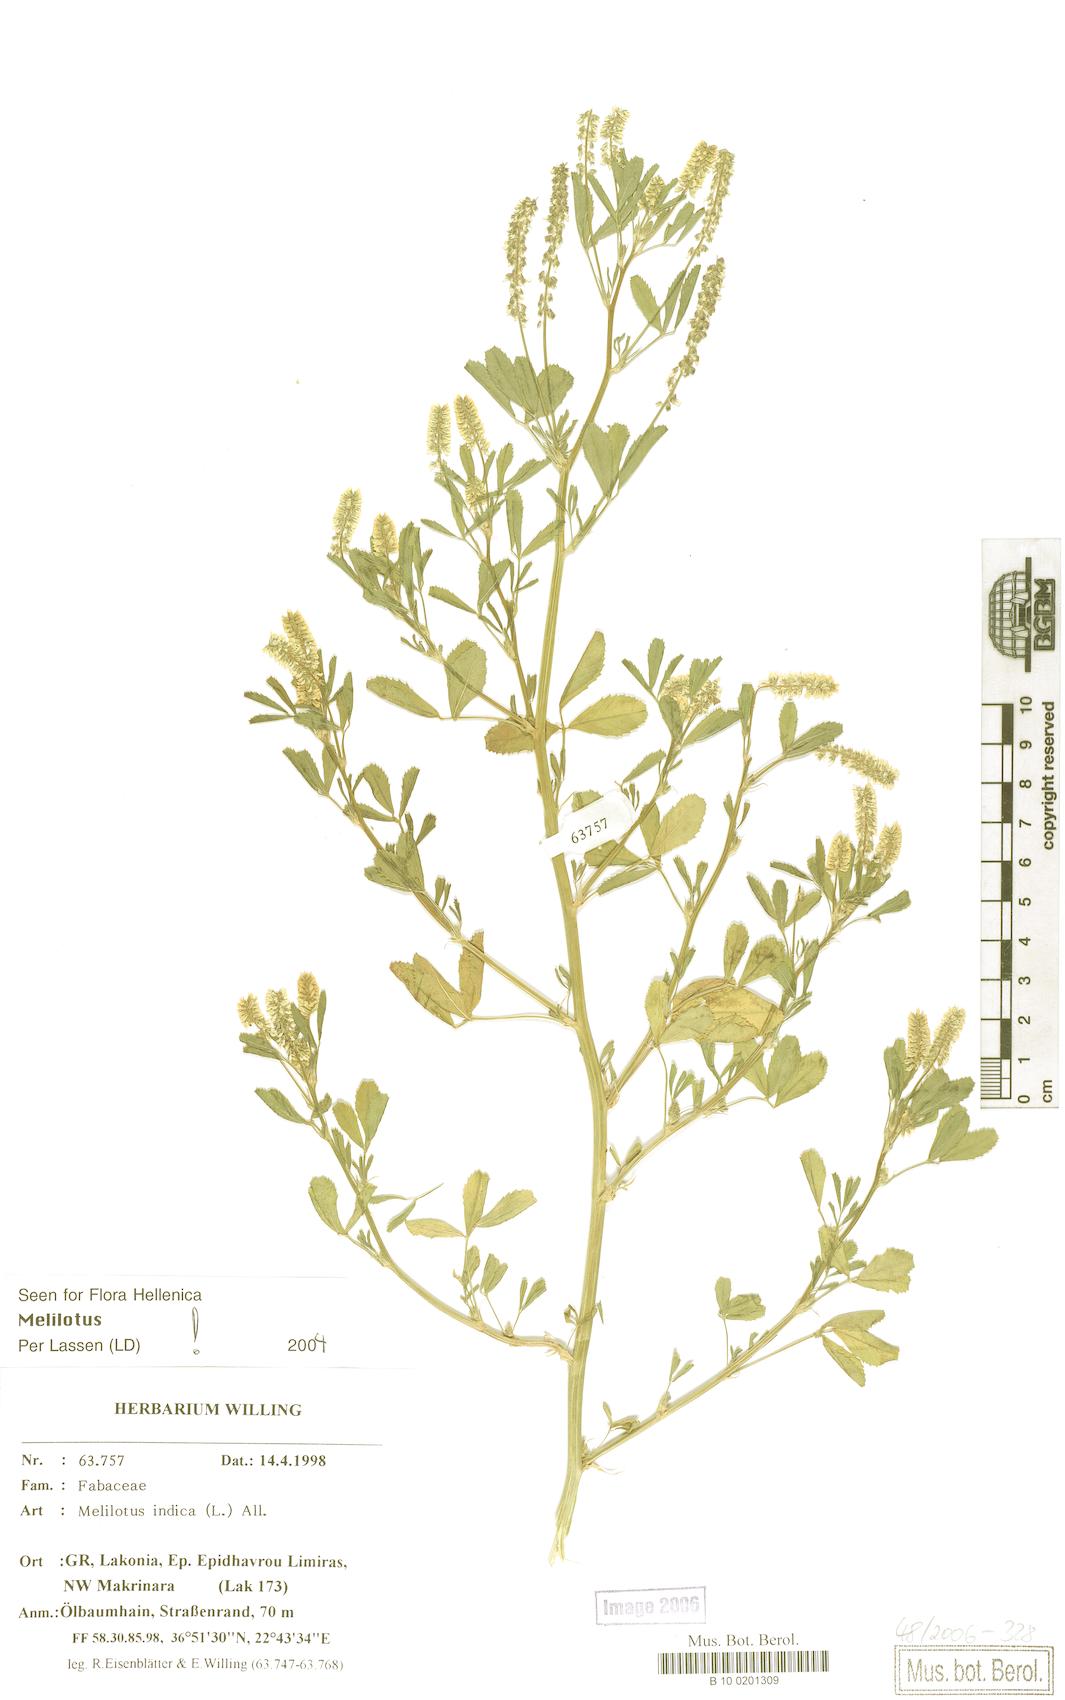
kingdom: Plantae
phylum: Tracheophyta
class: Magnoliopsida
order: Fabales
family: Fabaceae
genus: Melilotus
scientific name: Melilotus indicus
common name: Small melilot
